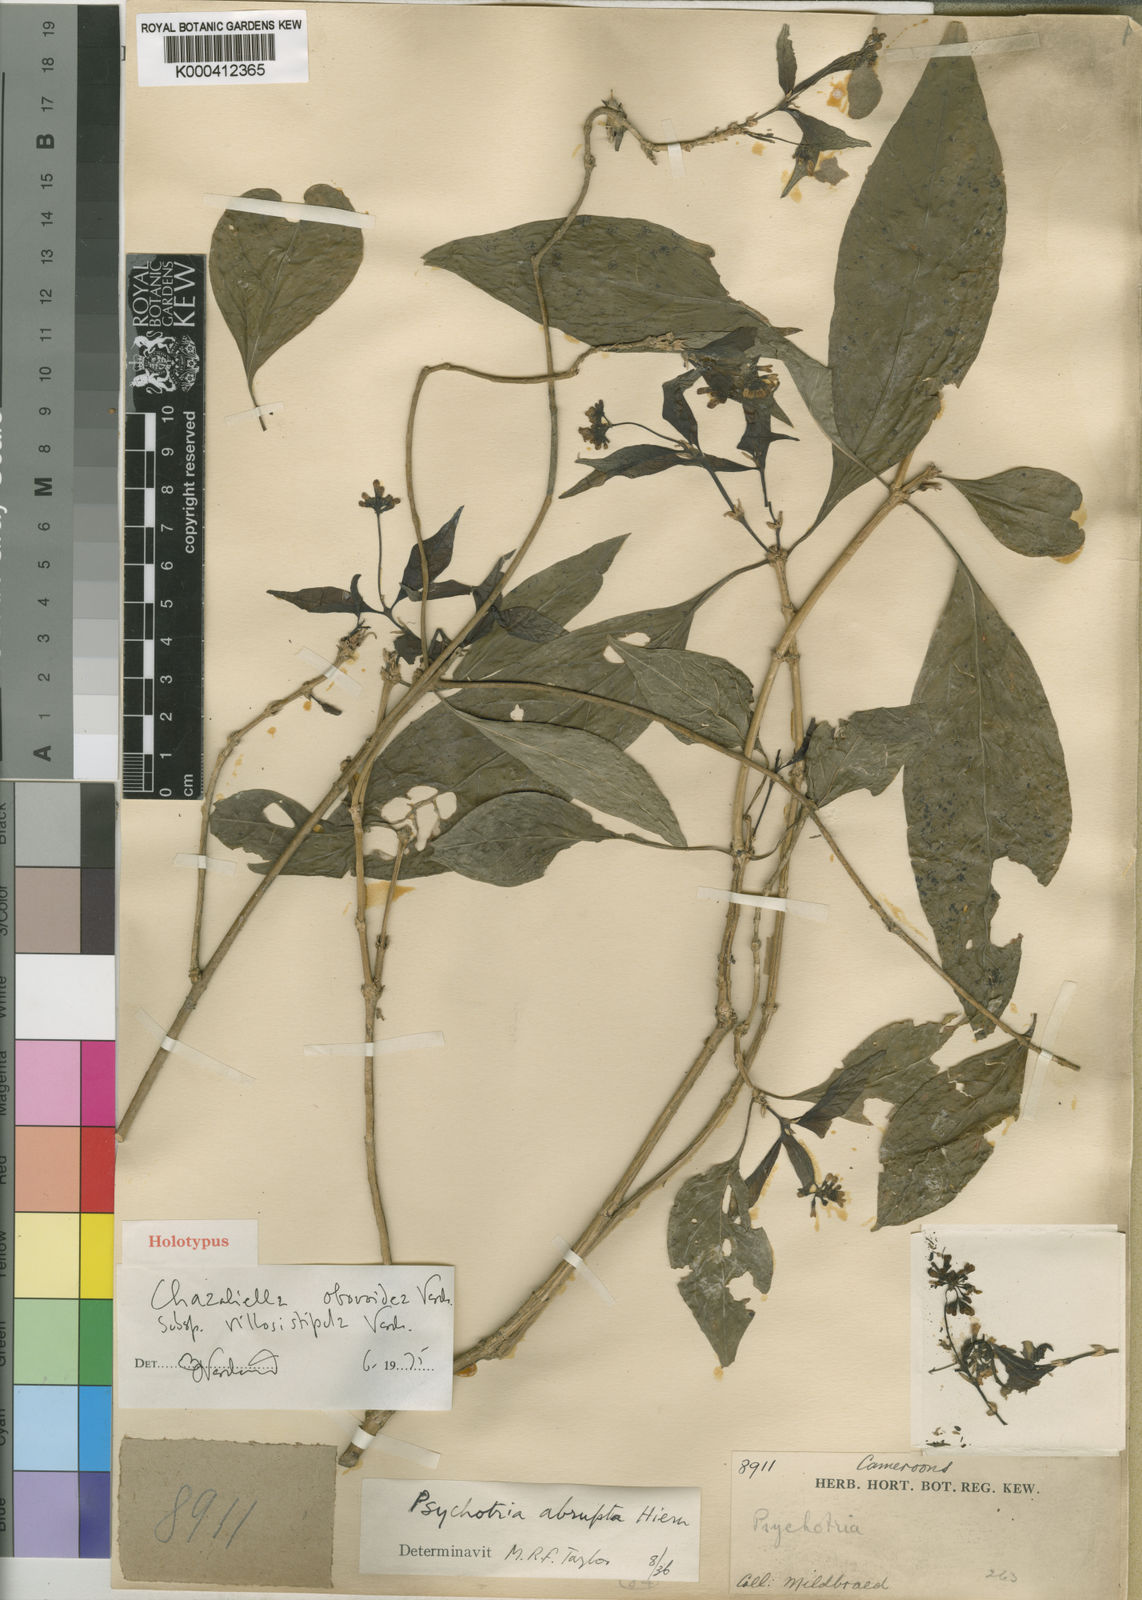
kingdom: Plantae
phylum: Tracheophyta
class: Magnoliopsida
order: Gentianales
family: Rubiaceae
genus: Eumachia
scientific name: Eumachia obovoidea
